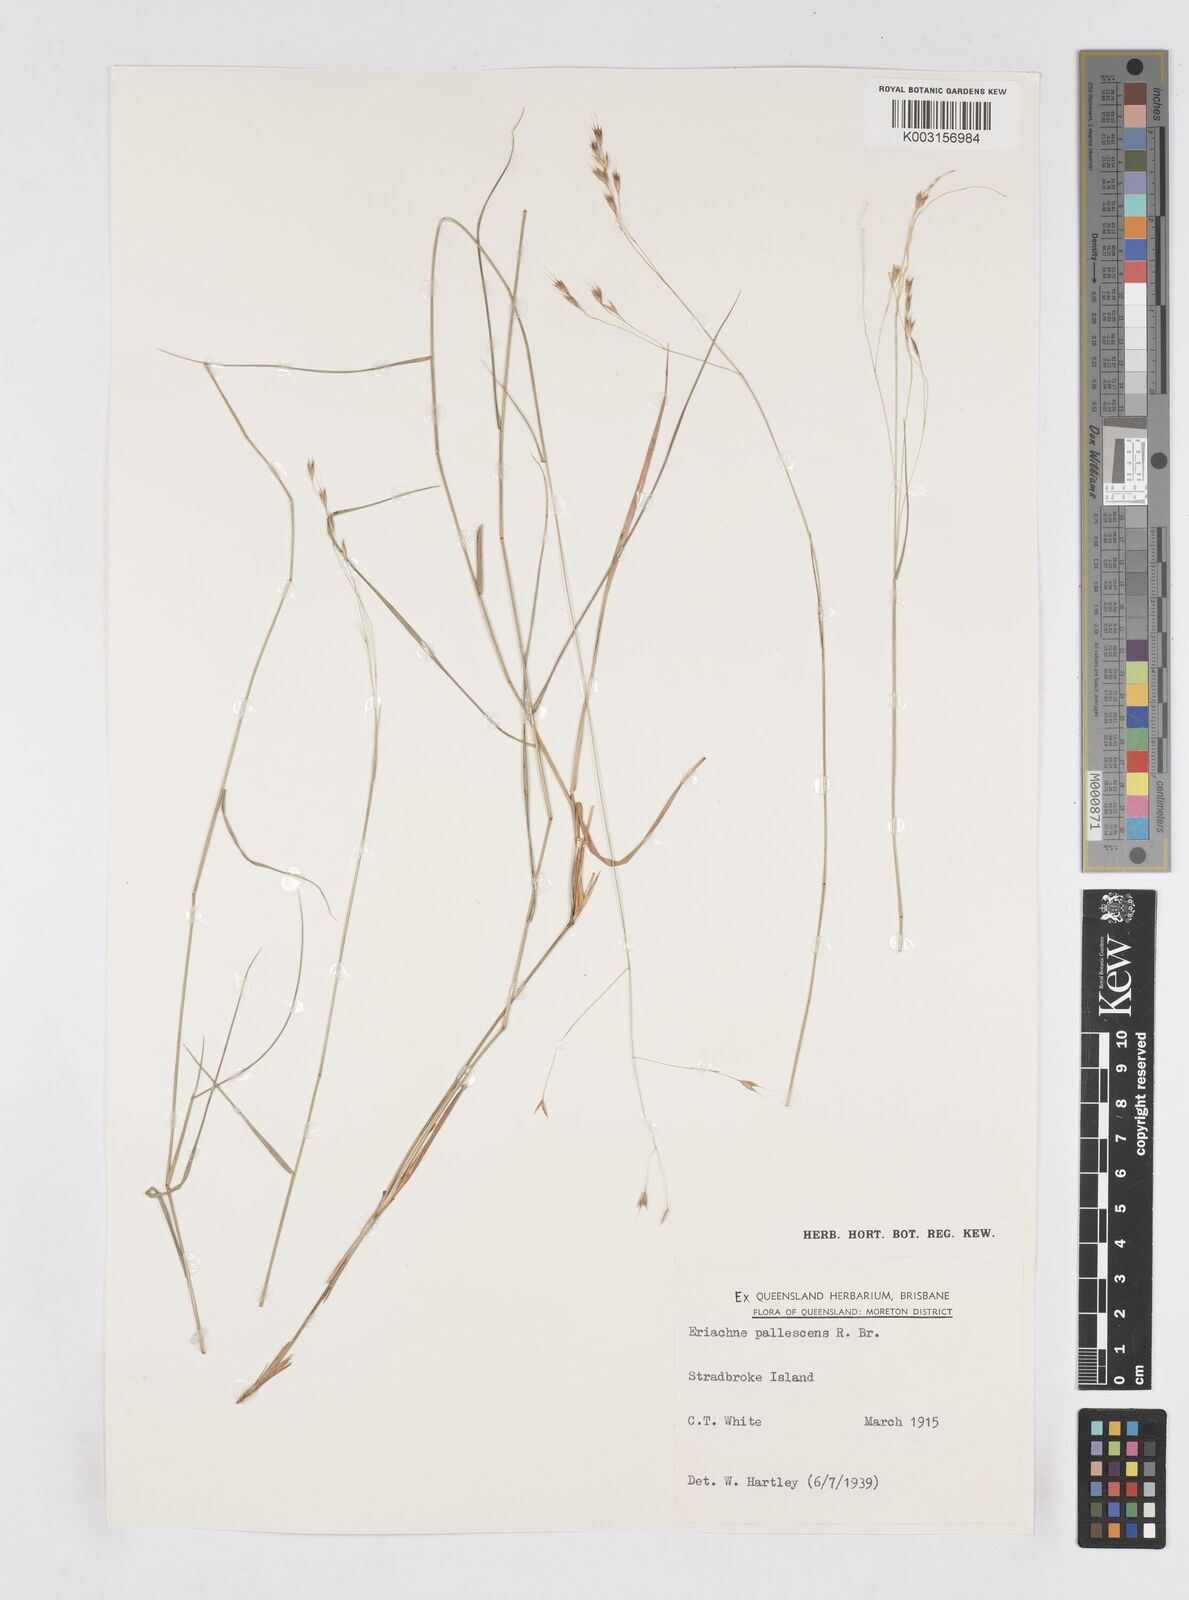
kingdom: Plantae
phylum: Tracheophyta
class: Liliopsida
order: Poales
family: Poaceae
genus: Eriachne
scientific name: Eriachne pallescens
